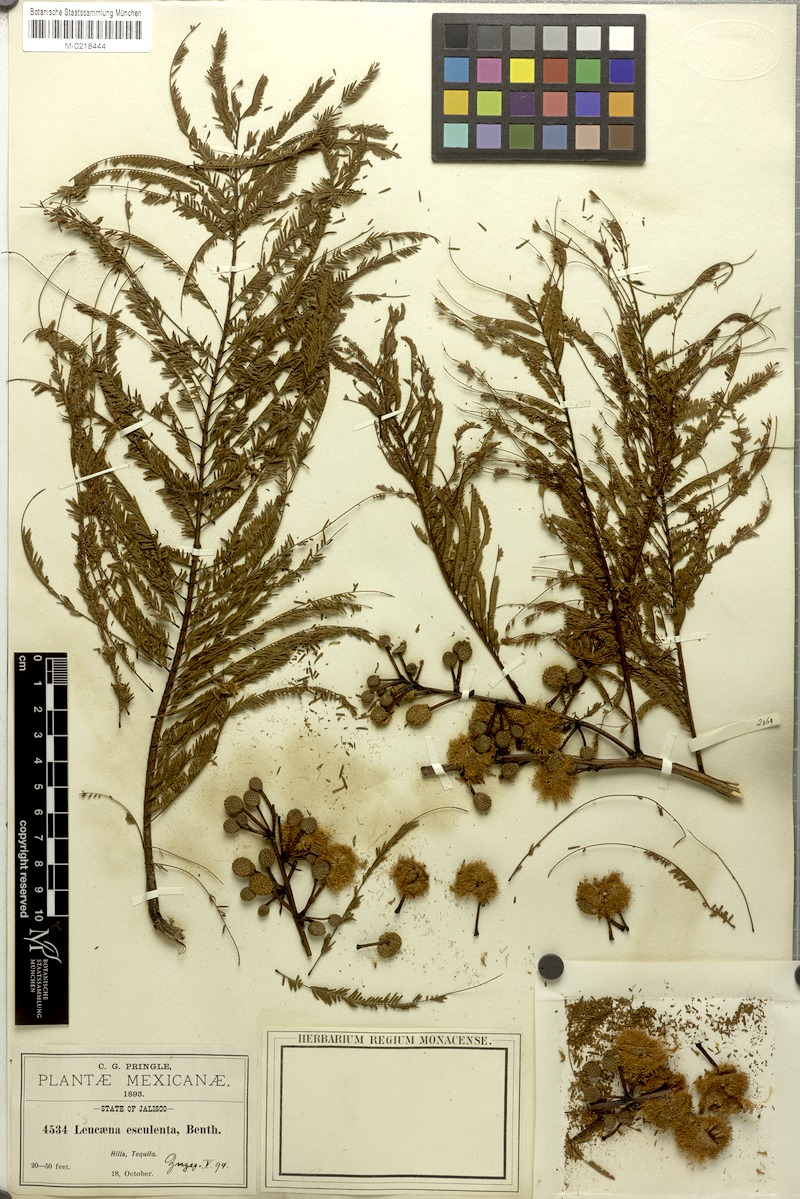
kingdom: Plantae
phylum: Tracheophyta
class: Magnoliopsida
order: Fabales
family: Fabaceae
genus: Leucaena
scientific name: Leucaena esculenta
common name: Guaje
